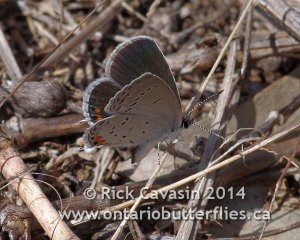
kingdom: Animalia
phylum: Arthropoda
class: Insecta
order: Lepidoptera
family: Lycaenidae
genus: Elkalyce
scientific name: Elkalyce comyntas
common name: Eastern Tailed-Blue
